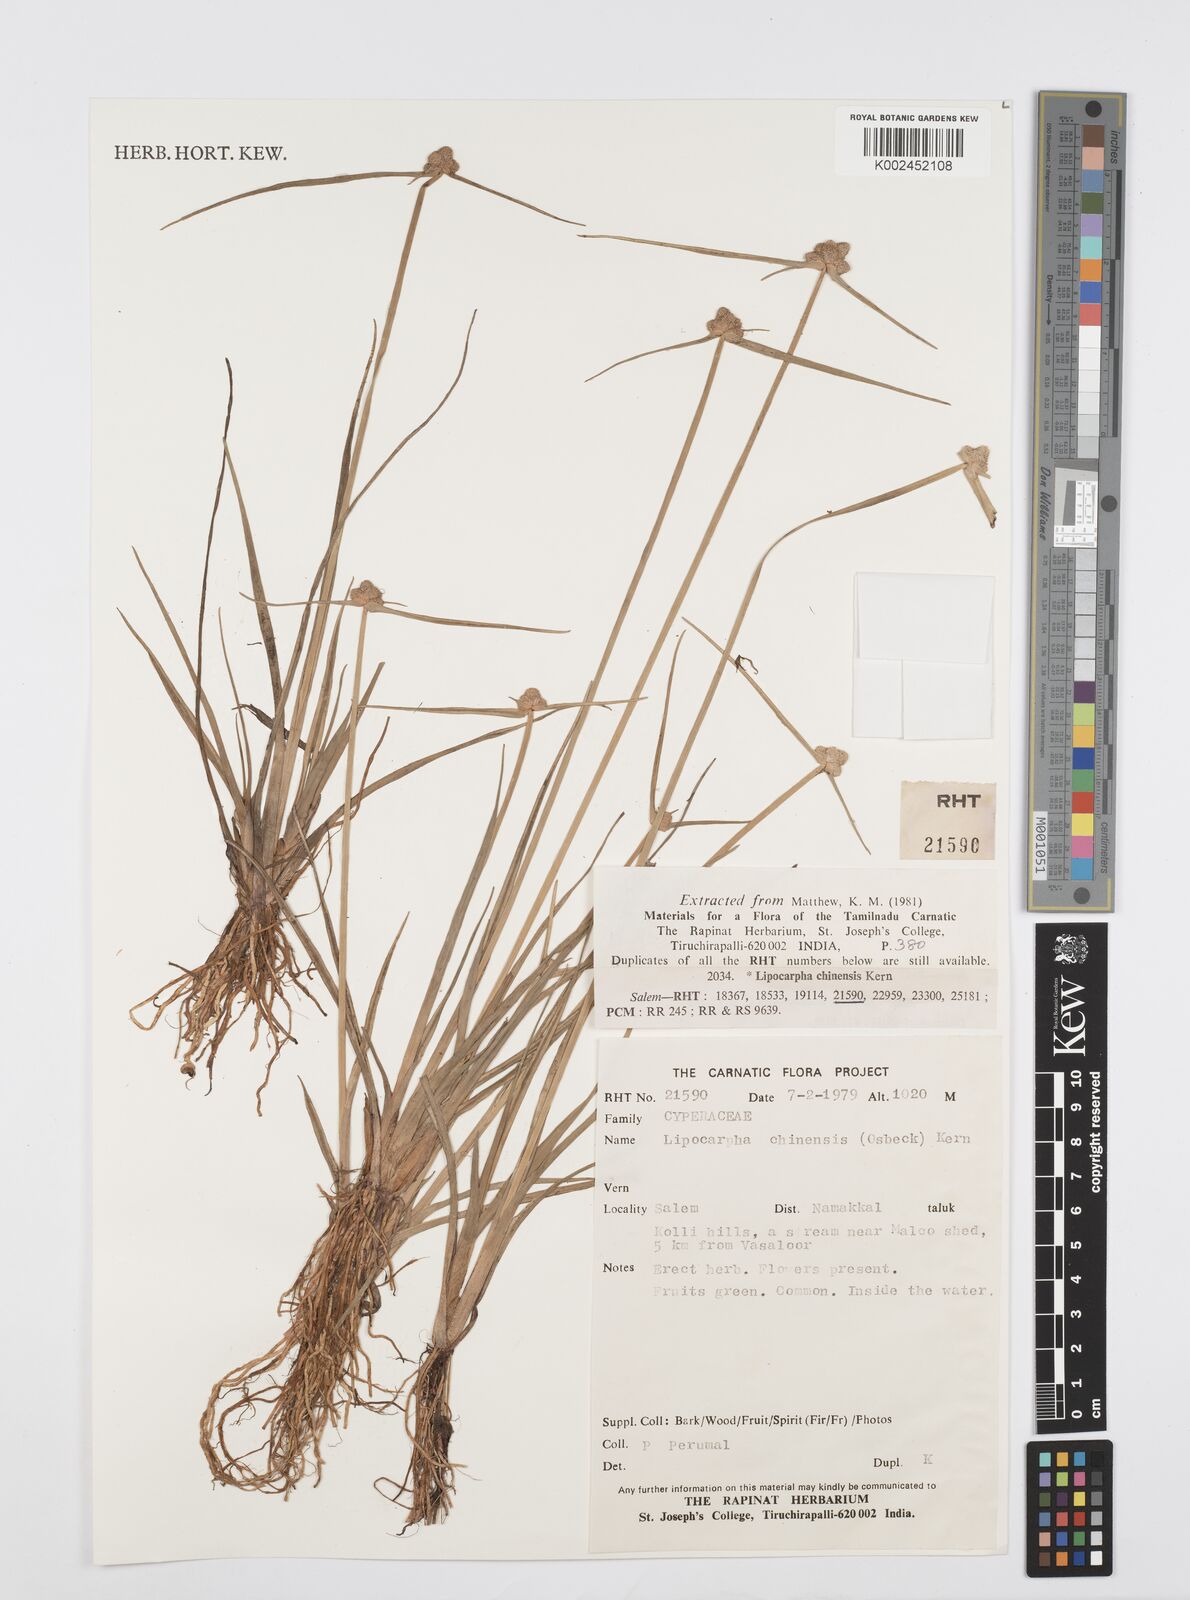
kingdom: Plantae
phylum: Tracheophyta
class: Liliopsida
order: Poales
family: Cyperaceae
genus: Cyperus
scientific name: Cyperus
